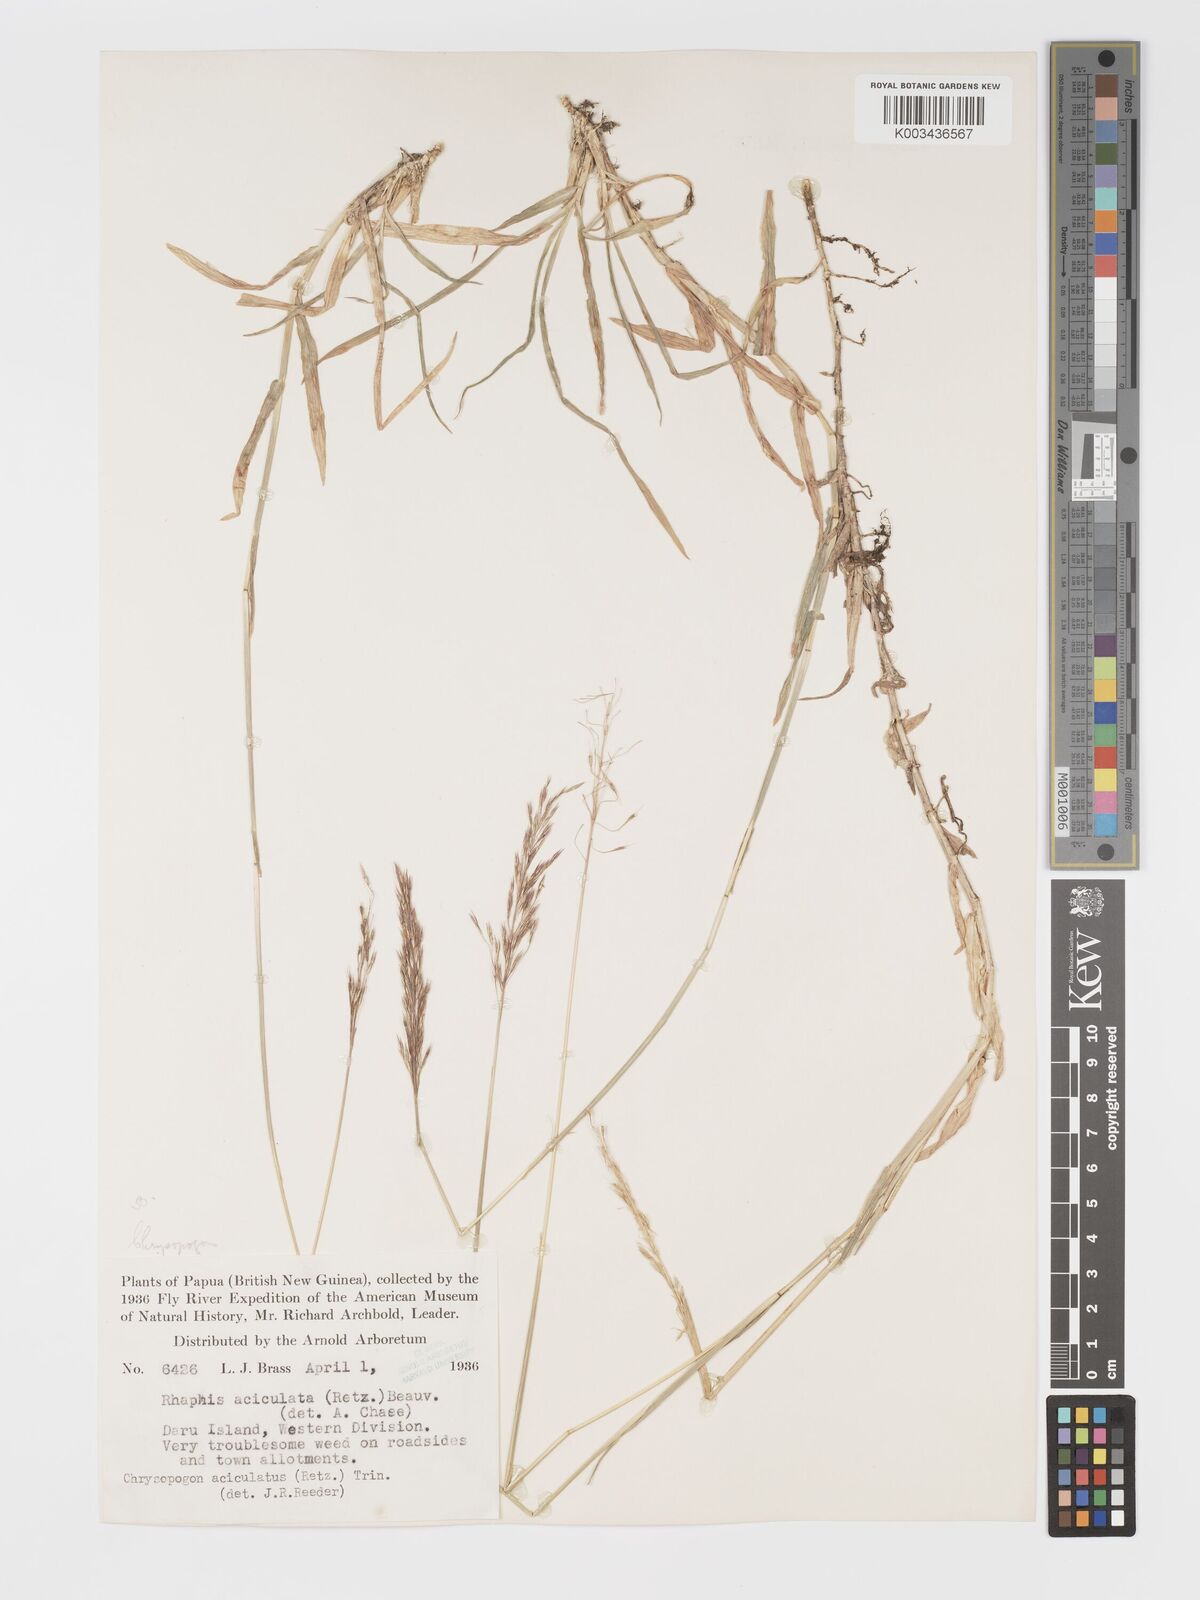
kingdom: Plantae
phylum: Tracheophyta
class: Liliopsida
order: Poales
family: Poaceae
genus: Chrysopogon
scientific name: Chrysopogon aciculatus
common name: Pilipiliula
